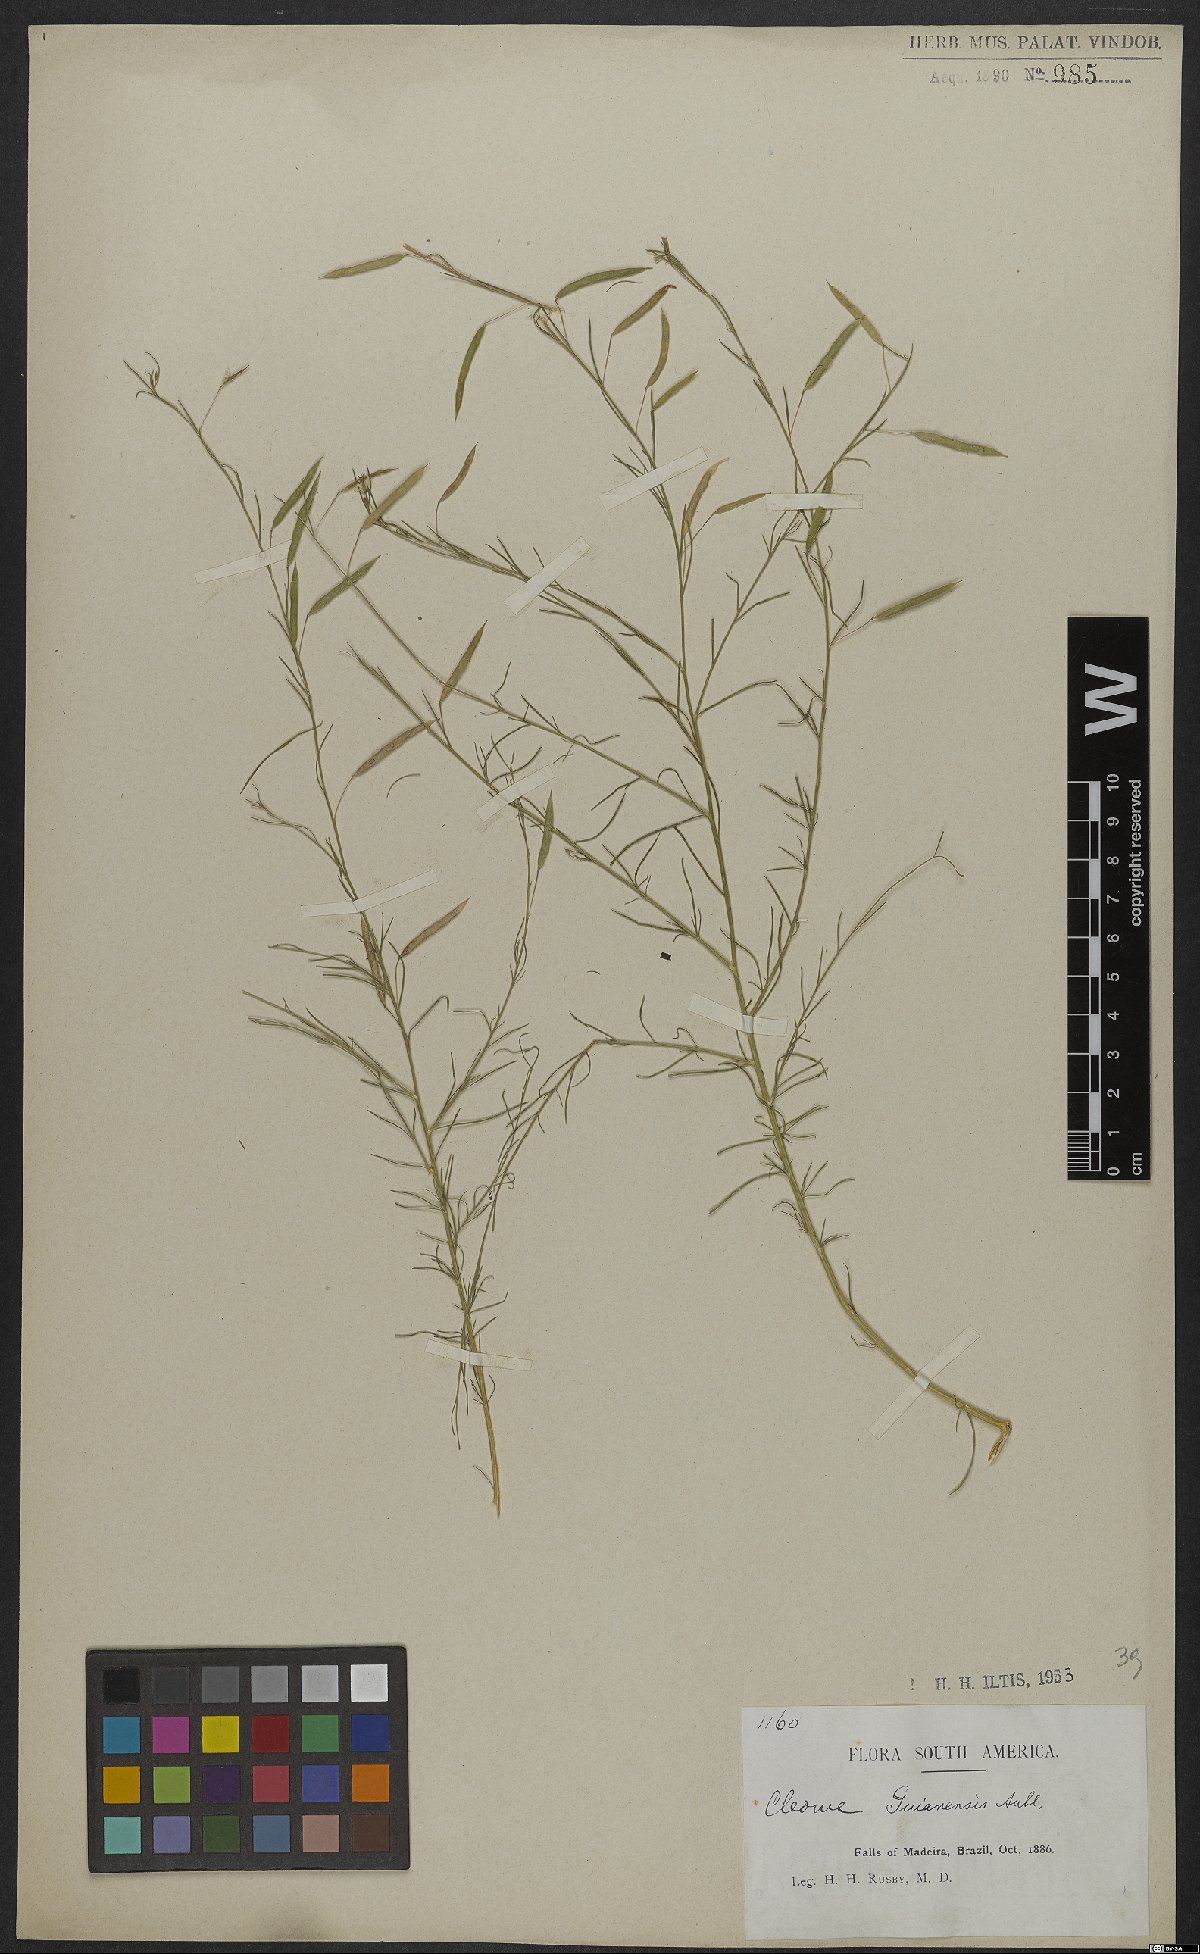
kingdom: Plantae
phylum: Tracheophyta
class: Magnoliopsida
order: Brassicales
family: Cleomaceae
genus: Physostemon
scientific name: Physostemon guianensis
